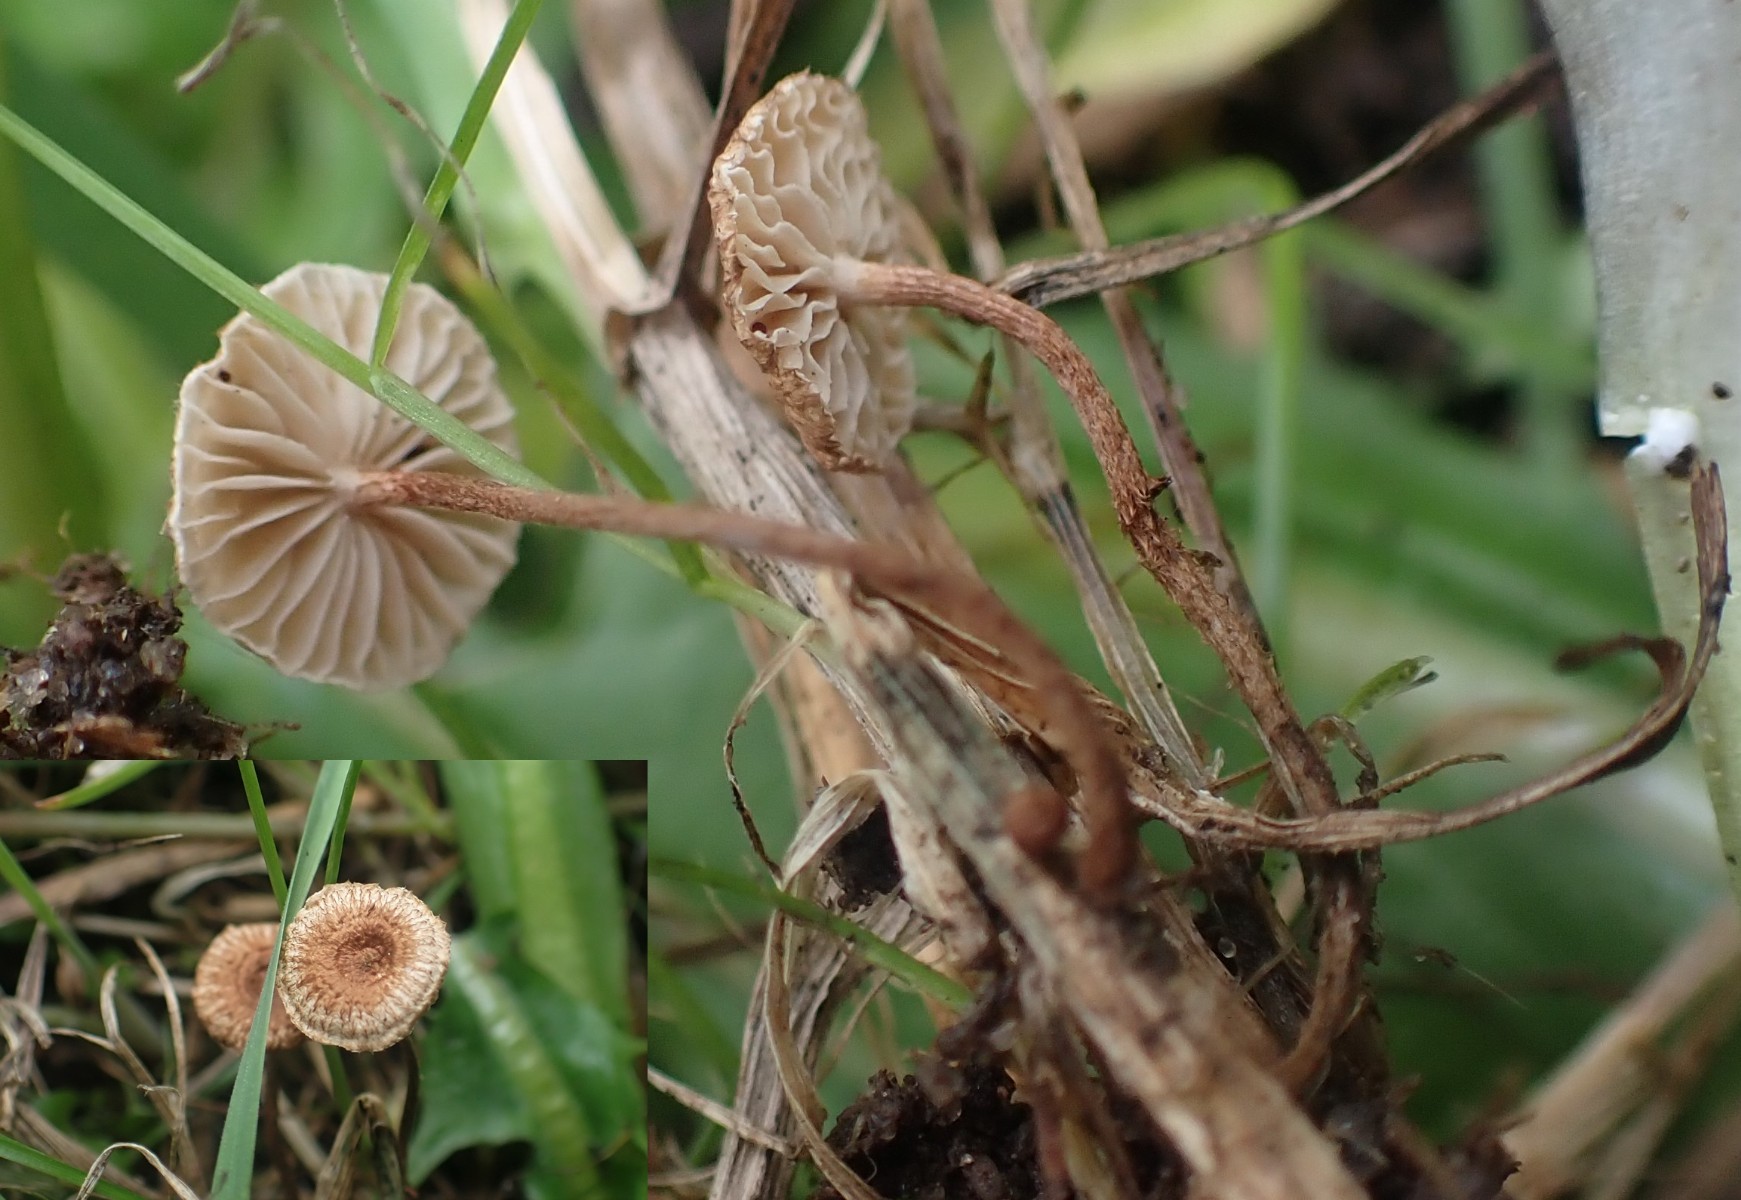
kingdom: Fungi
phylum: Basidiomycota
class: Agaricomycetes
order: Agaricales
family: Marasmiaceae
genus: Crinipellis
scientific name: Crinipellis scabella
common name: børstefod
